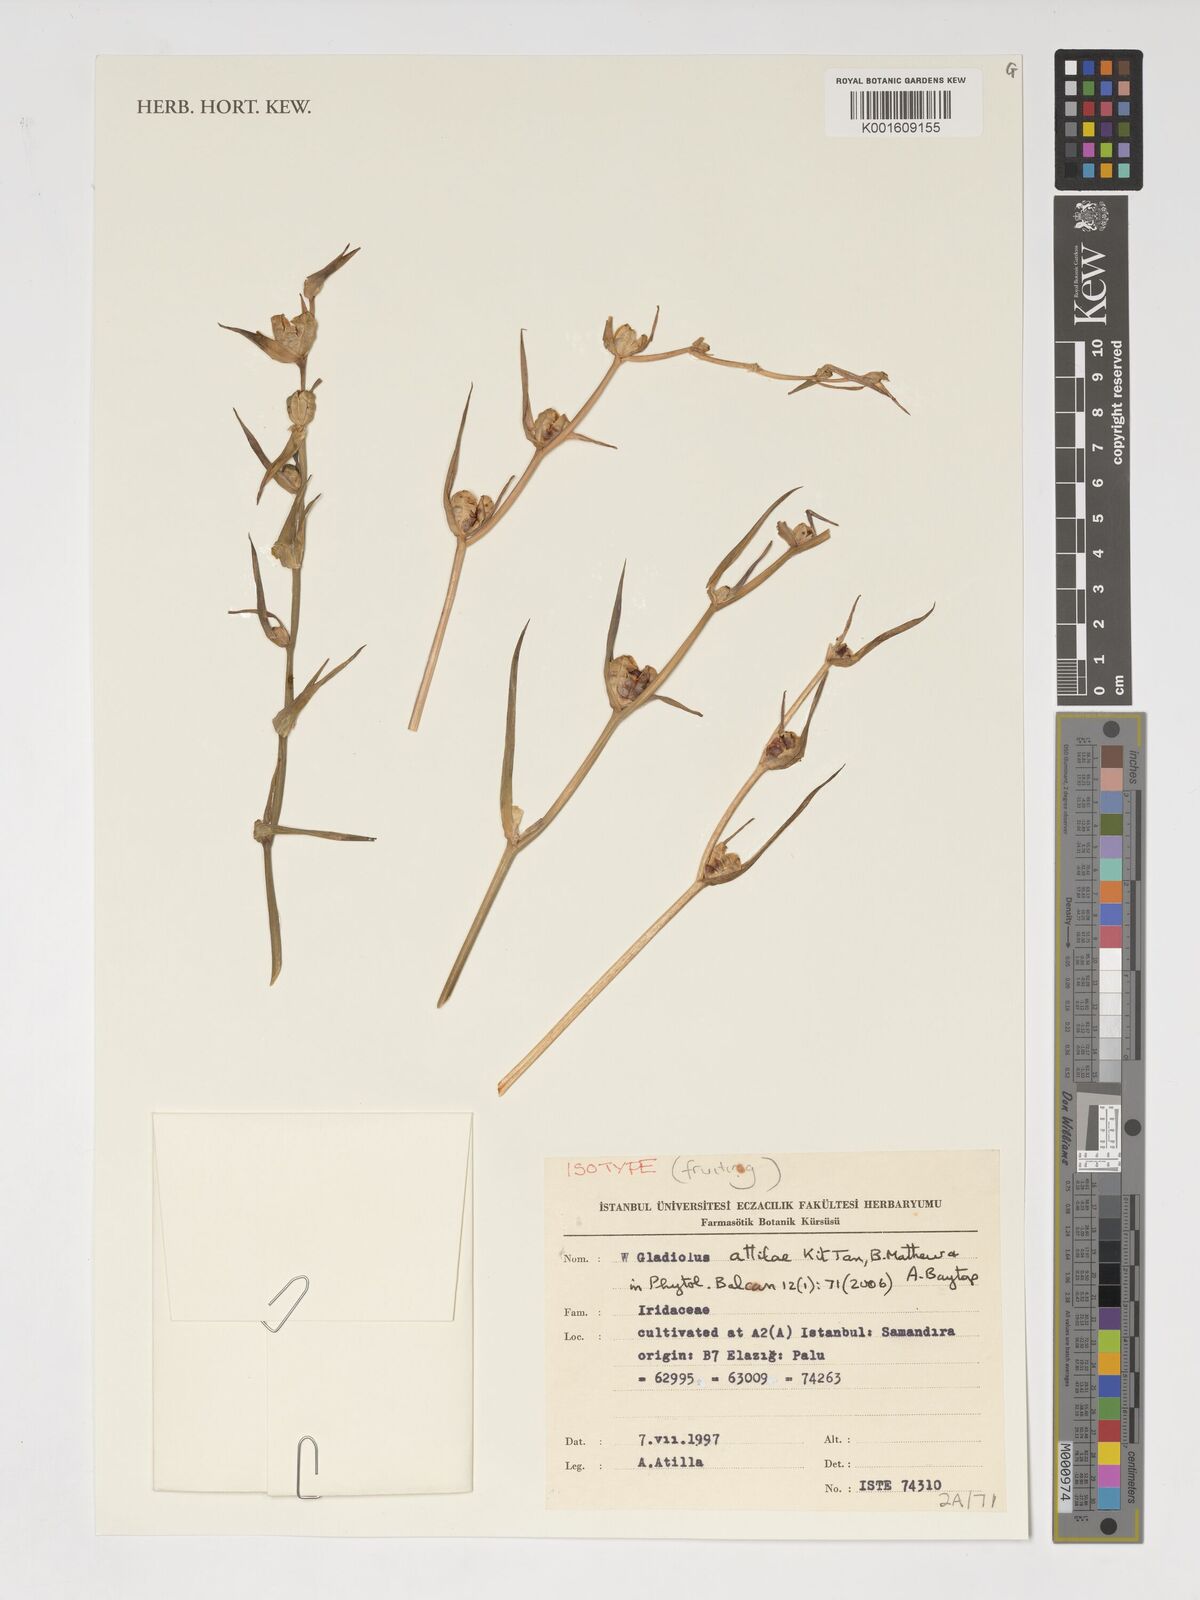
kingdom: Plantae
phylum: Tracheophyta
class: Liliopsida
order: Asparagales
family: Iridaceae
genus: Gladiolus
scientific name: Gladiolus attilae
